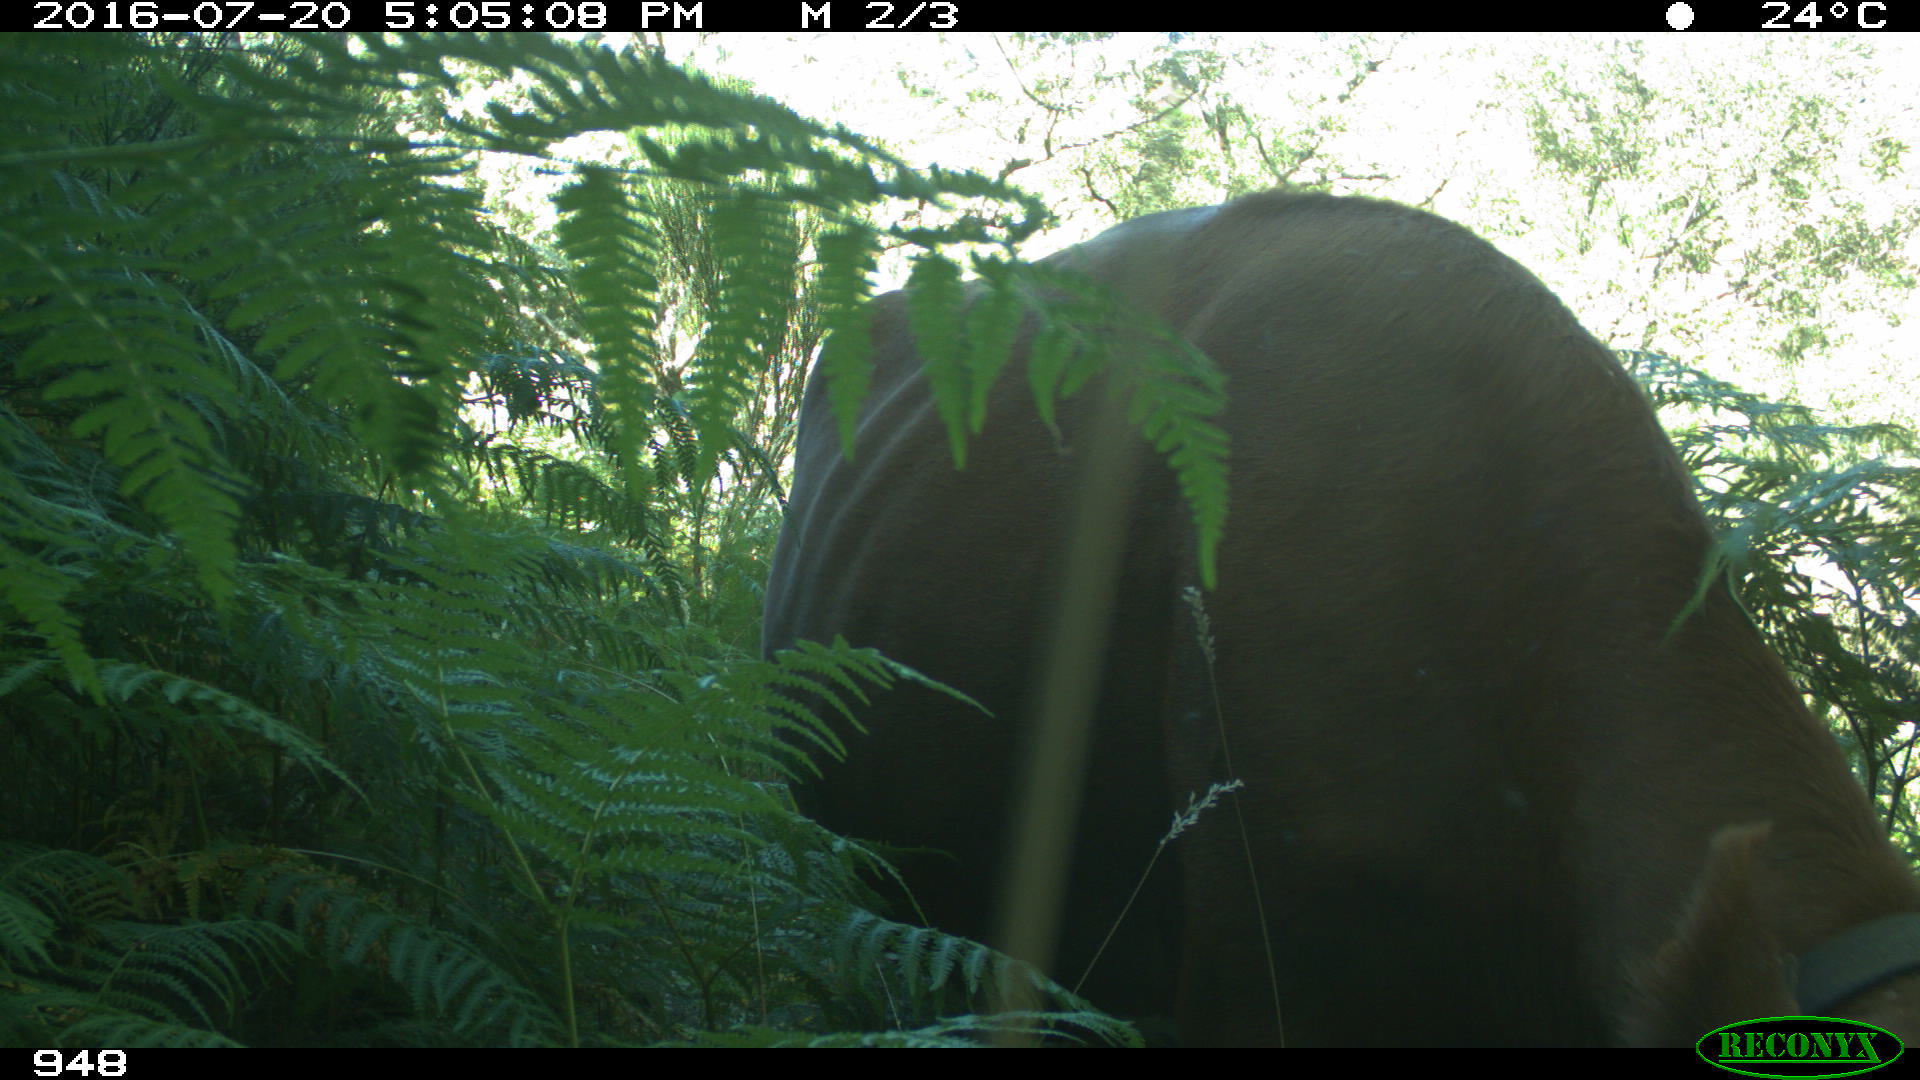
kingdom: Animalia
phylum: Chordata
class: Mammalia
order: Artiodactyla
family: Bovidae
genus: Bos
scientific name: Bos taurus
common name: Domesticated cattle
